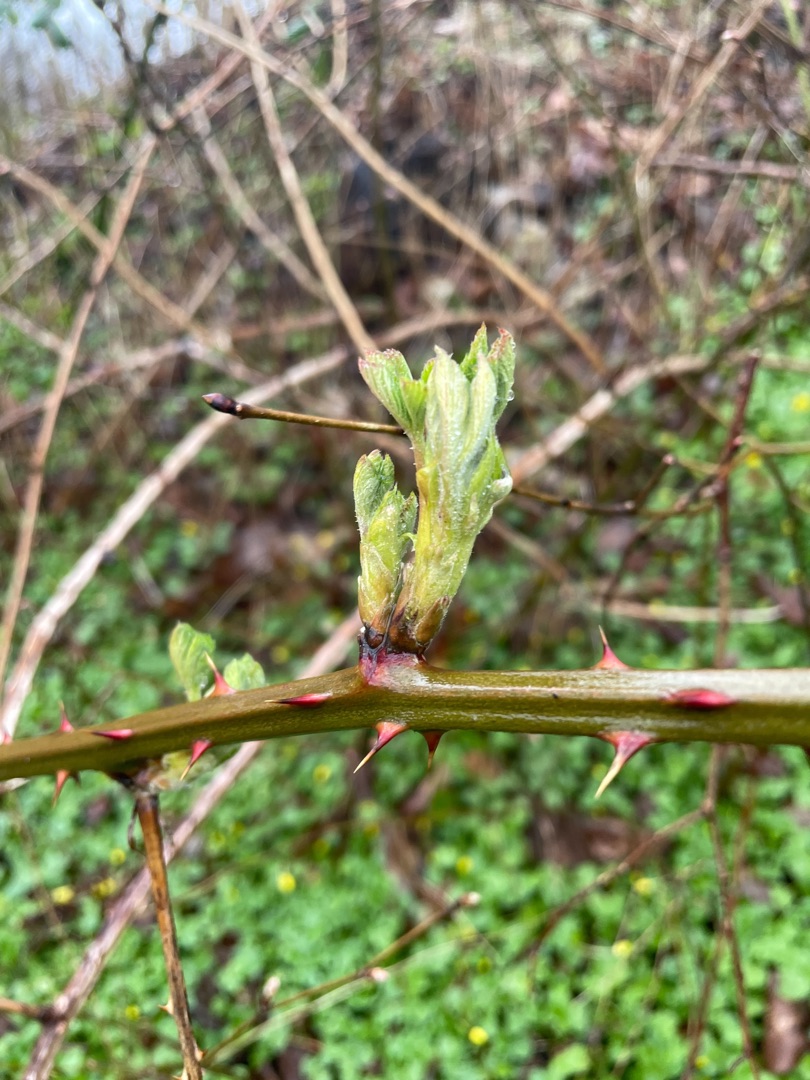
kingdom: Plantae
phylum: Tracheophyta
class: Magnoliopsida
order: Rosales
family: Rosaceae
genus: Rubus
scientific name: Rubus armeniacus
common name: Armensk brombær
